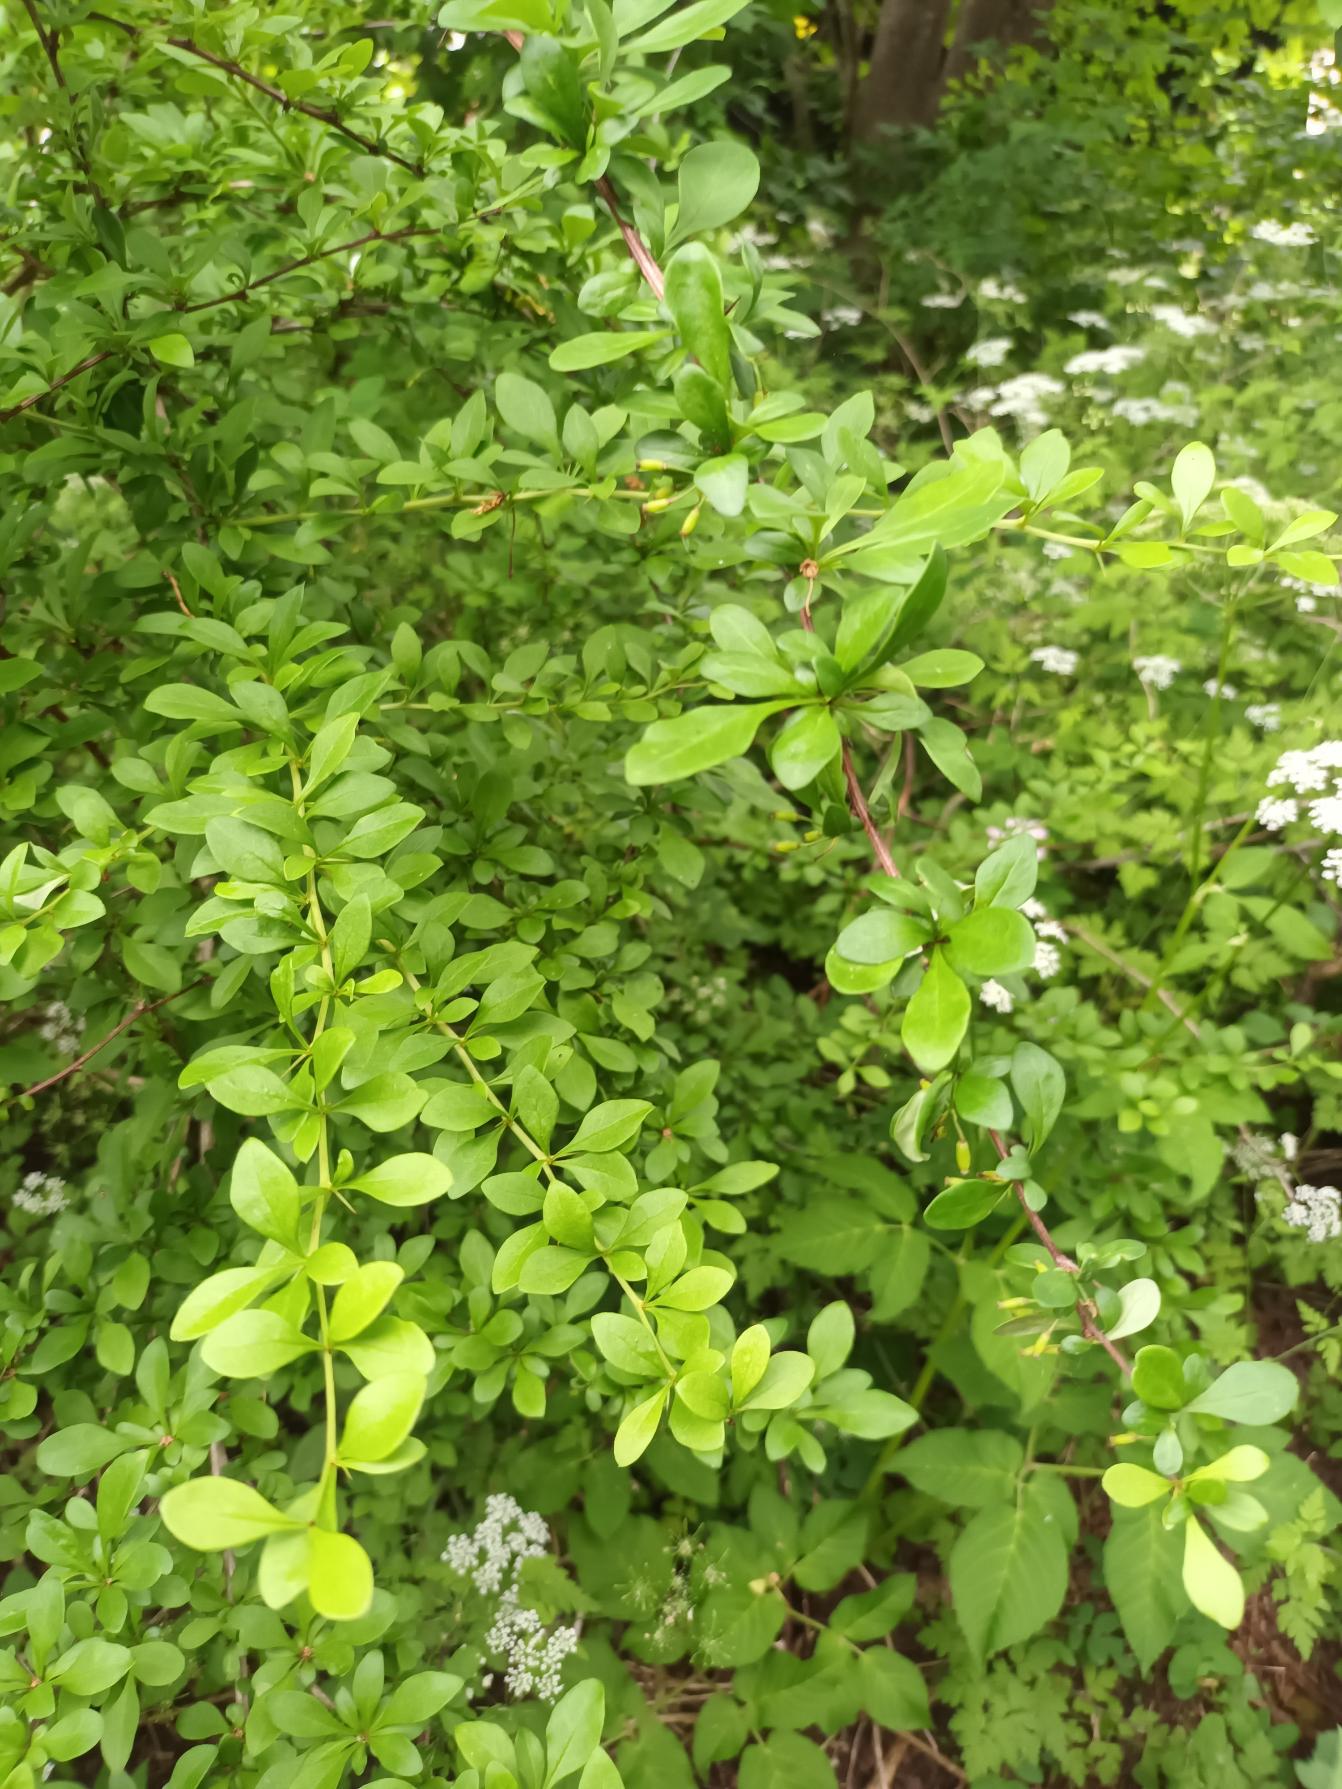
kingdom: Plantae
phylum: Tracheophyta
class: Magnoliopsida
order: Ranunculales
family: Berberidaceae
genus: Berberis
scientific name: Berberis thunbergii
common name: Hæk-berberis
